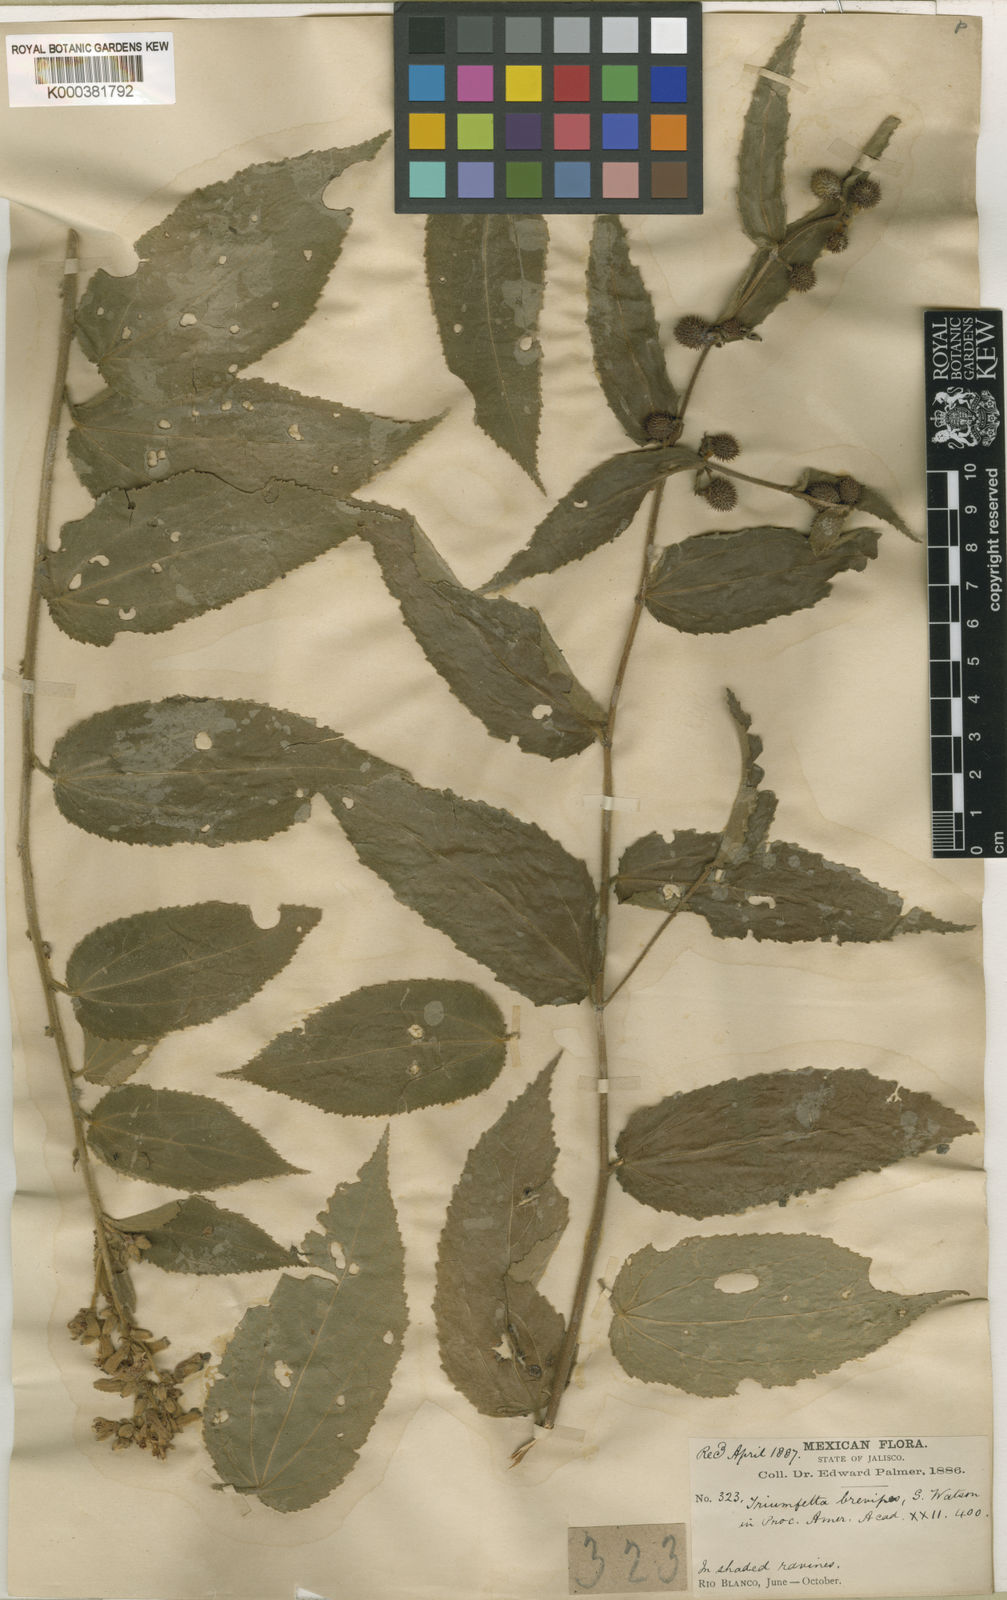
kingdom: Plantae
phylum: Tracheophyta
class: Magnoliopsida
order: Malvales
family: Malvaceae
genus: Triumfetta
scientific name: Triumfetta brevipes
